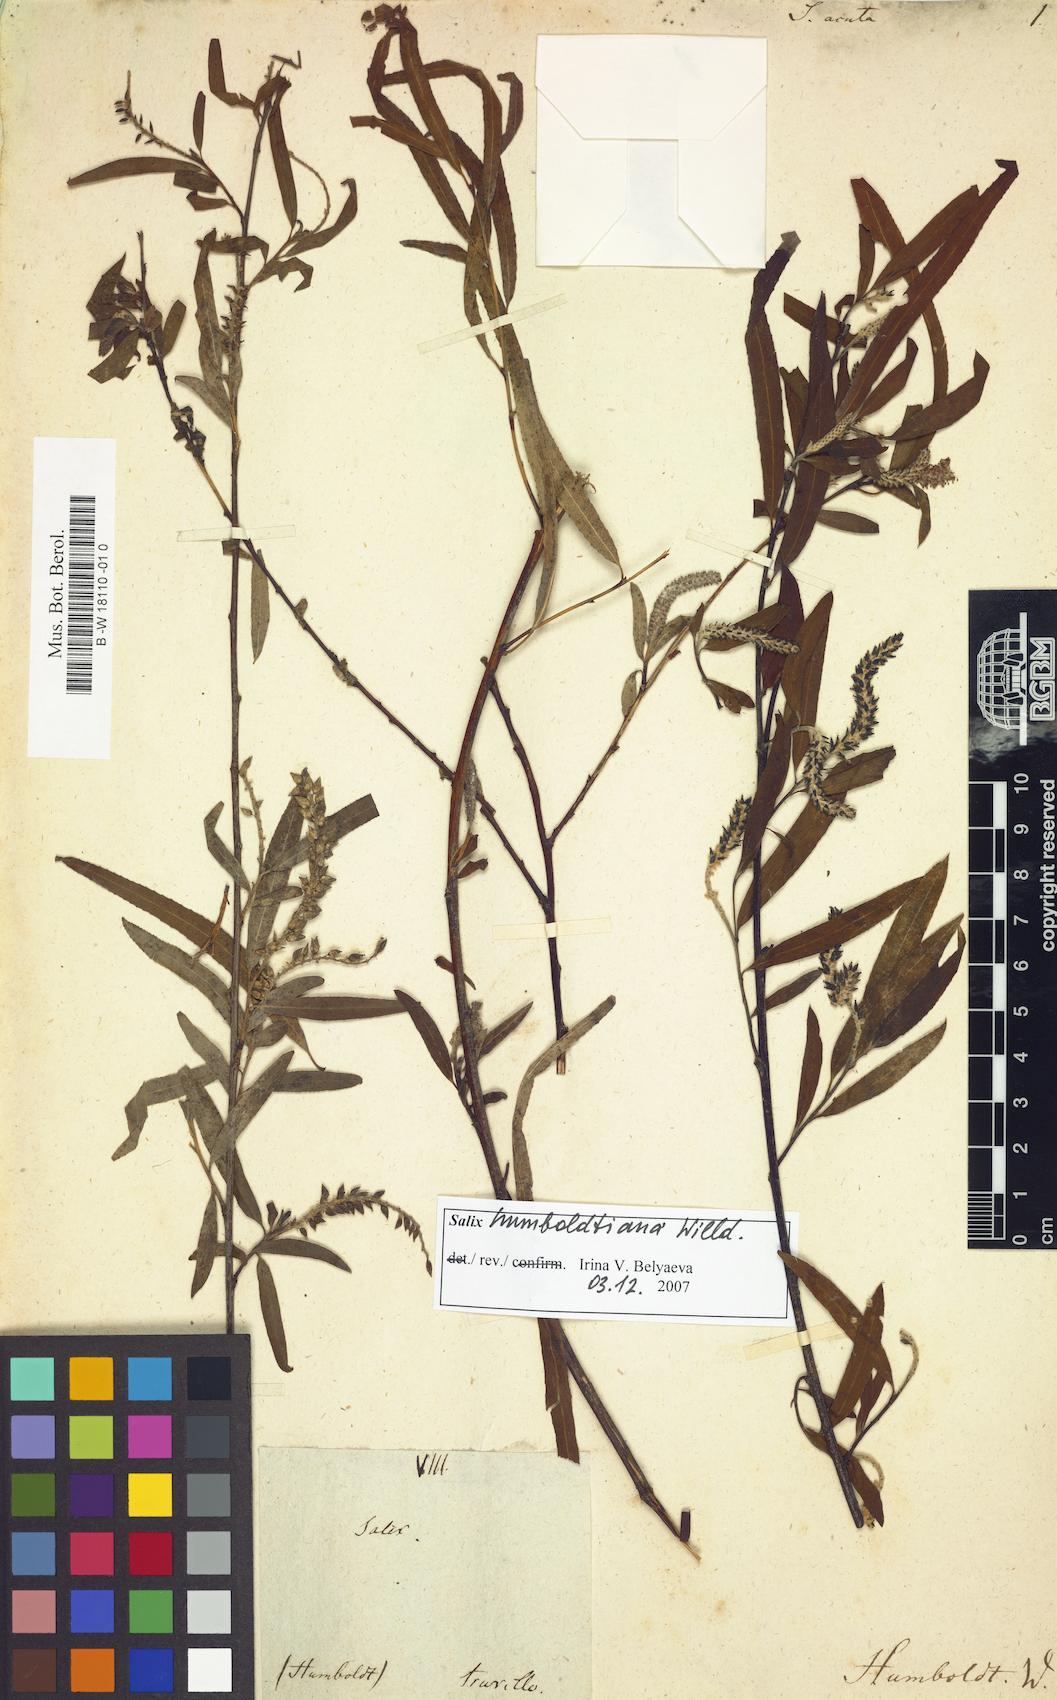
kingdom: Plantae
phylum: Tracheophyta
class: Magnoliopsida
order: Malpighiales
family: Salicaceae
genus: Salix
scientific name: Salix acuta
